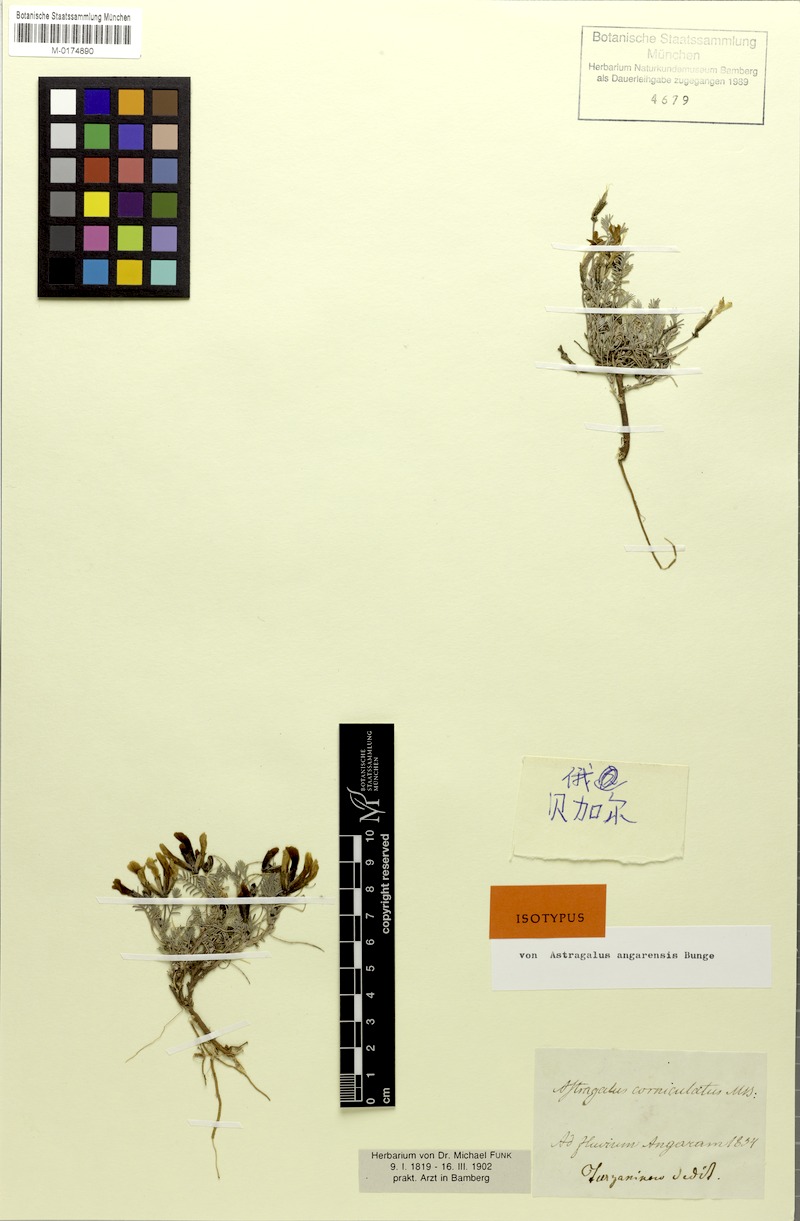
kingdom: Plantae
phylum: Tracheophyta
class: Magnoliopsida
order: Fabales
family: Fabaceae
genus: Astragalus
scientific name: Astragalus angarensis
